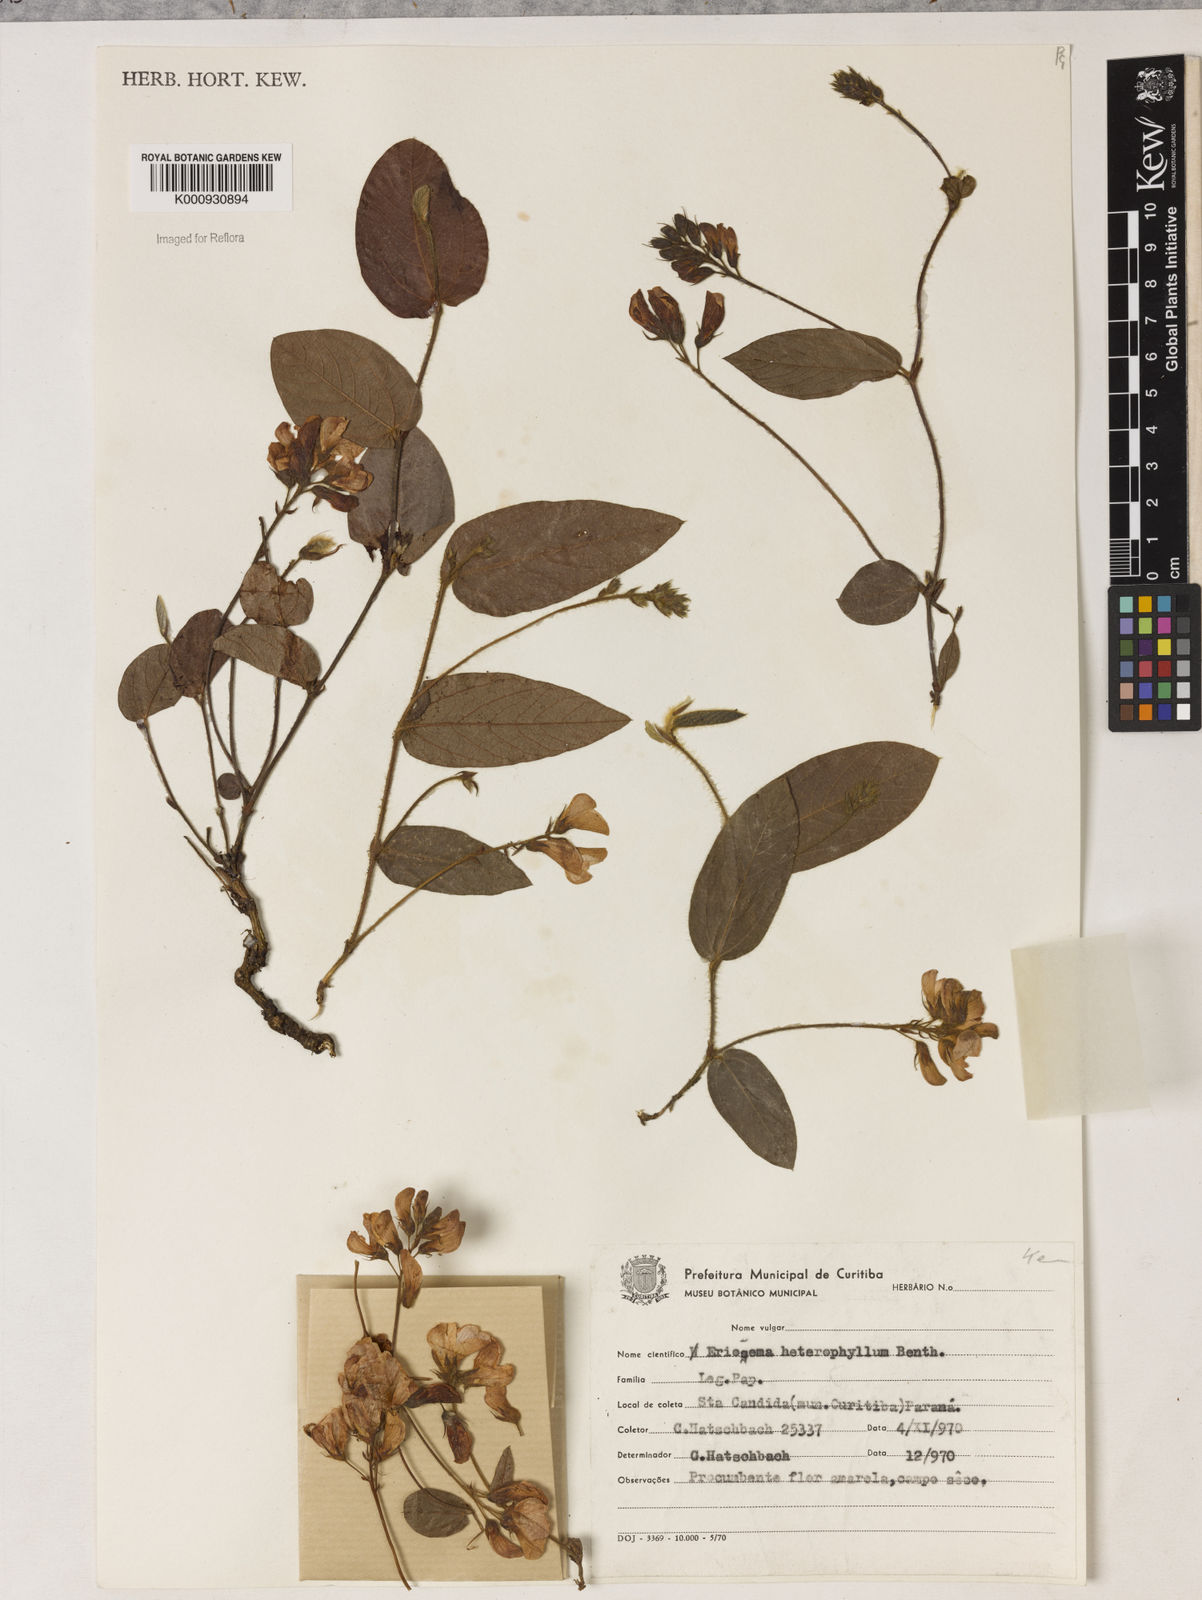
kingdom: Plantae
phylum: Tracheophyta
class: Magnoliopsida
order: Fabales
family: Fabaceae
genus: Eriosema
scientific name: Eriosema heterophyllum
